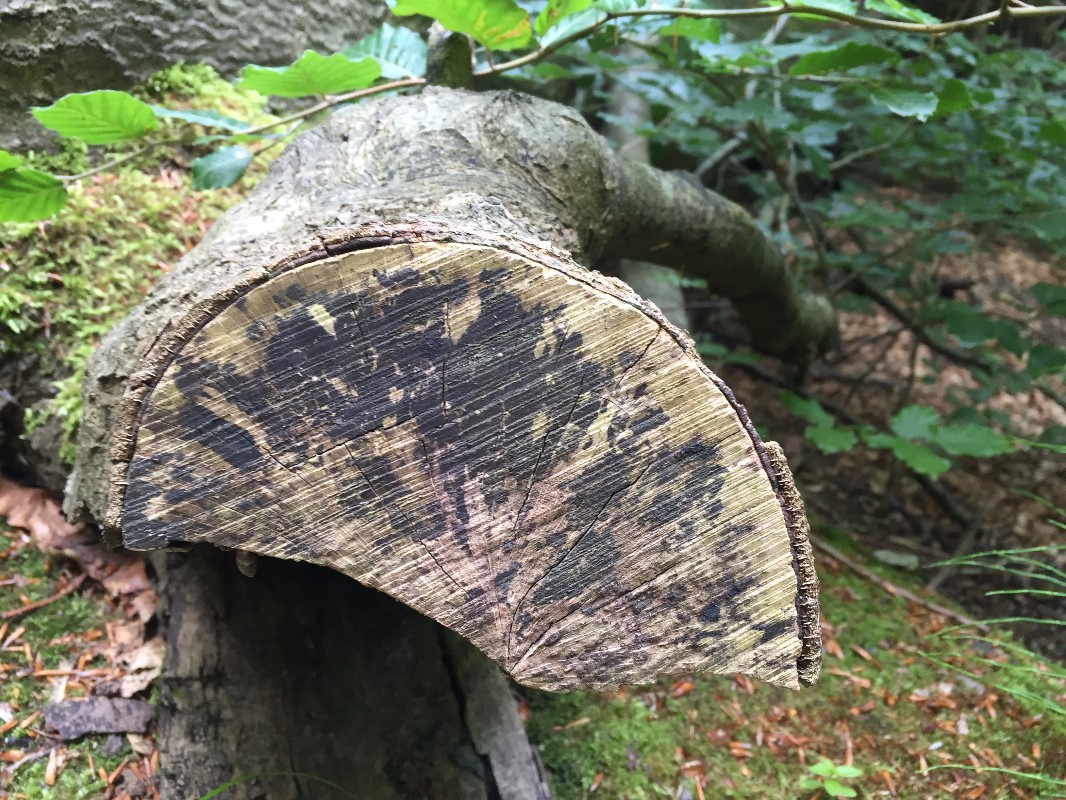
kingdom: Fungi
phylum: Ascomycota
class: Leotiomycetes
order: Helotiales
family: Helotiaceae
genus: Bispora
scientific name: Bispora pallescens
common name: måtte-snitskive
